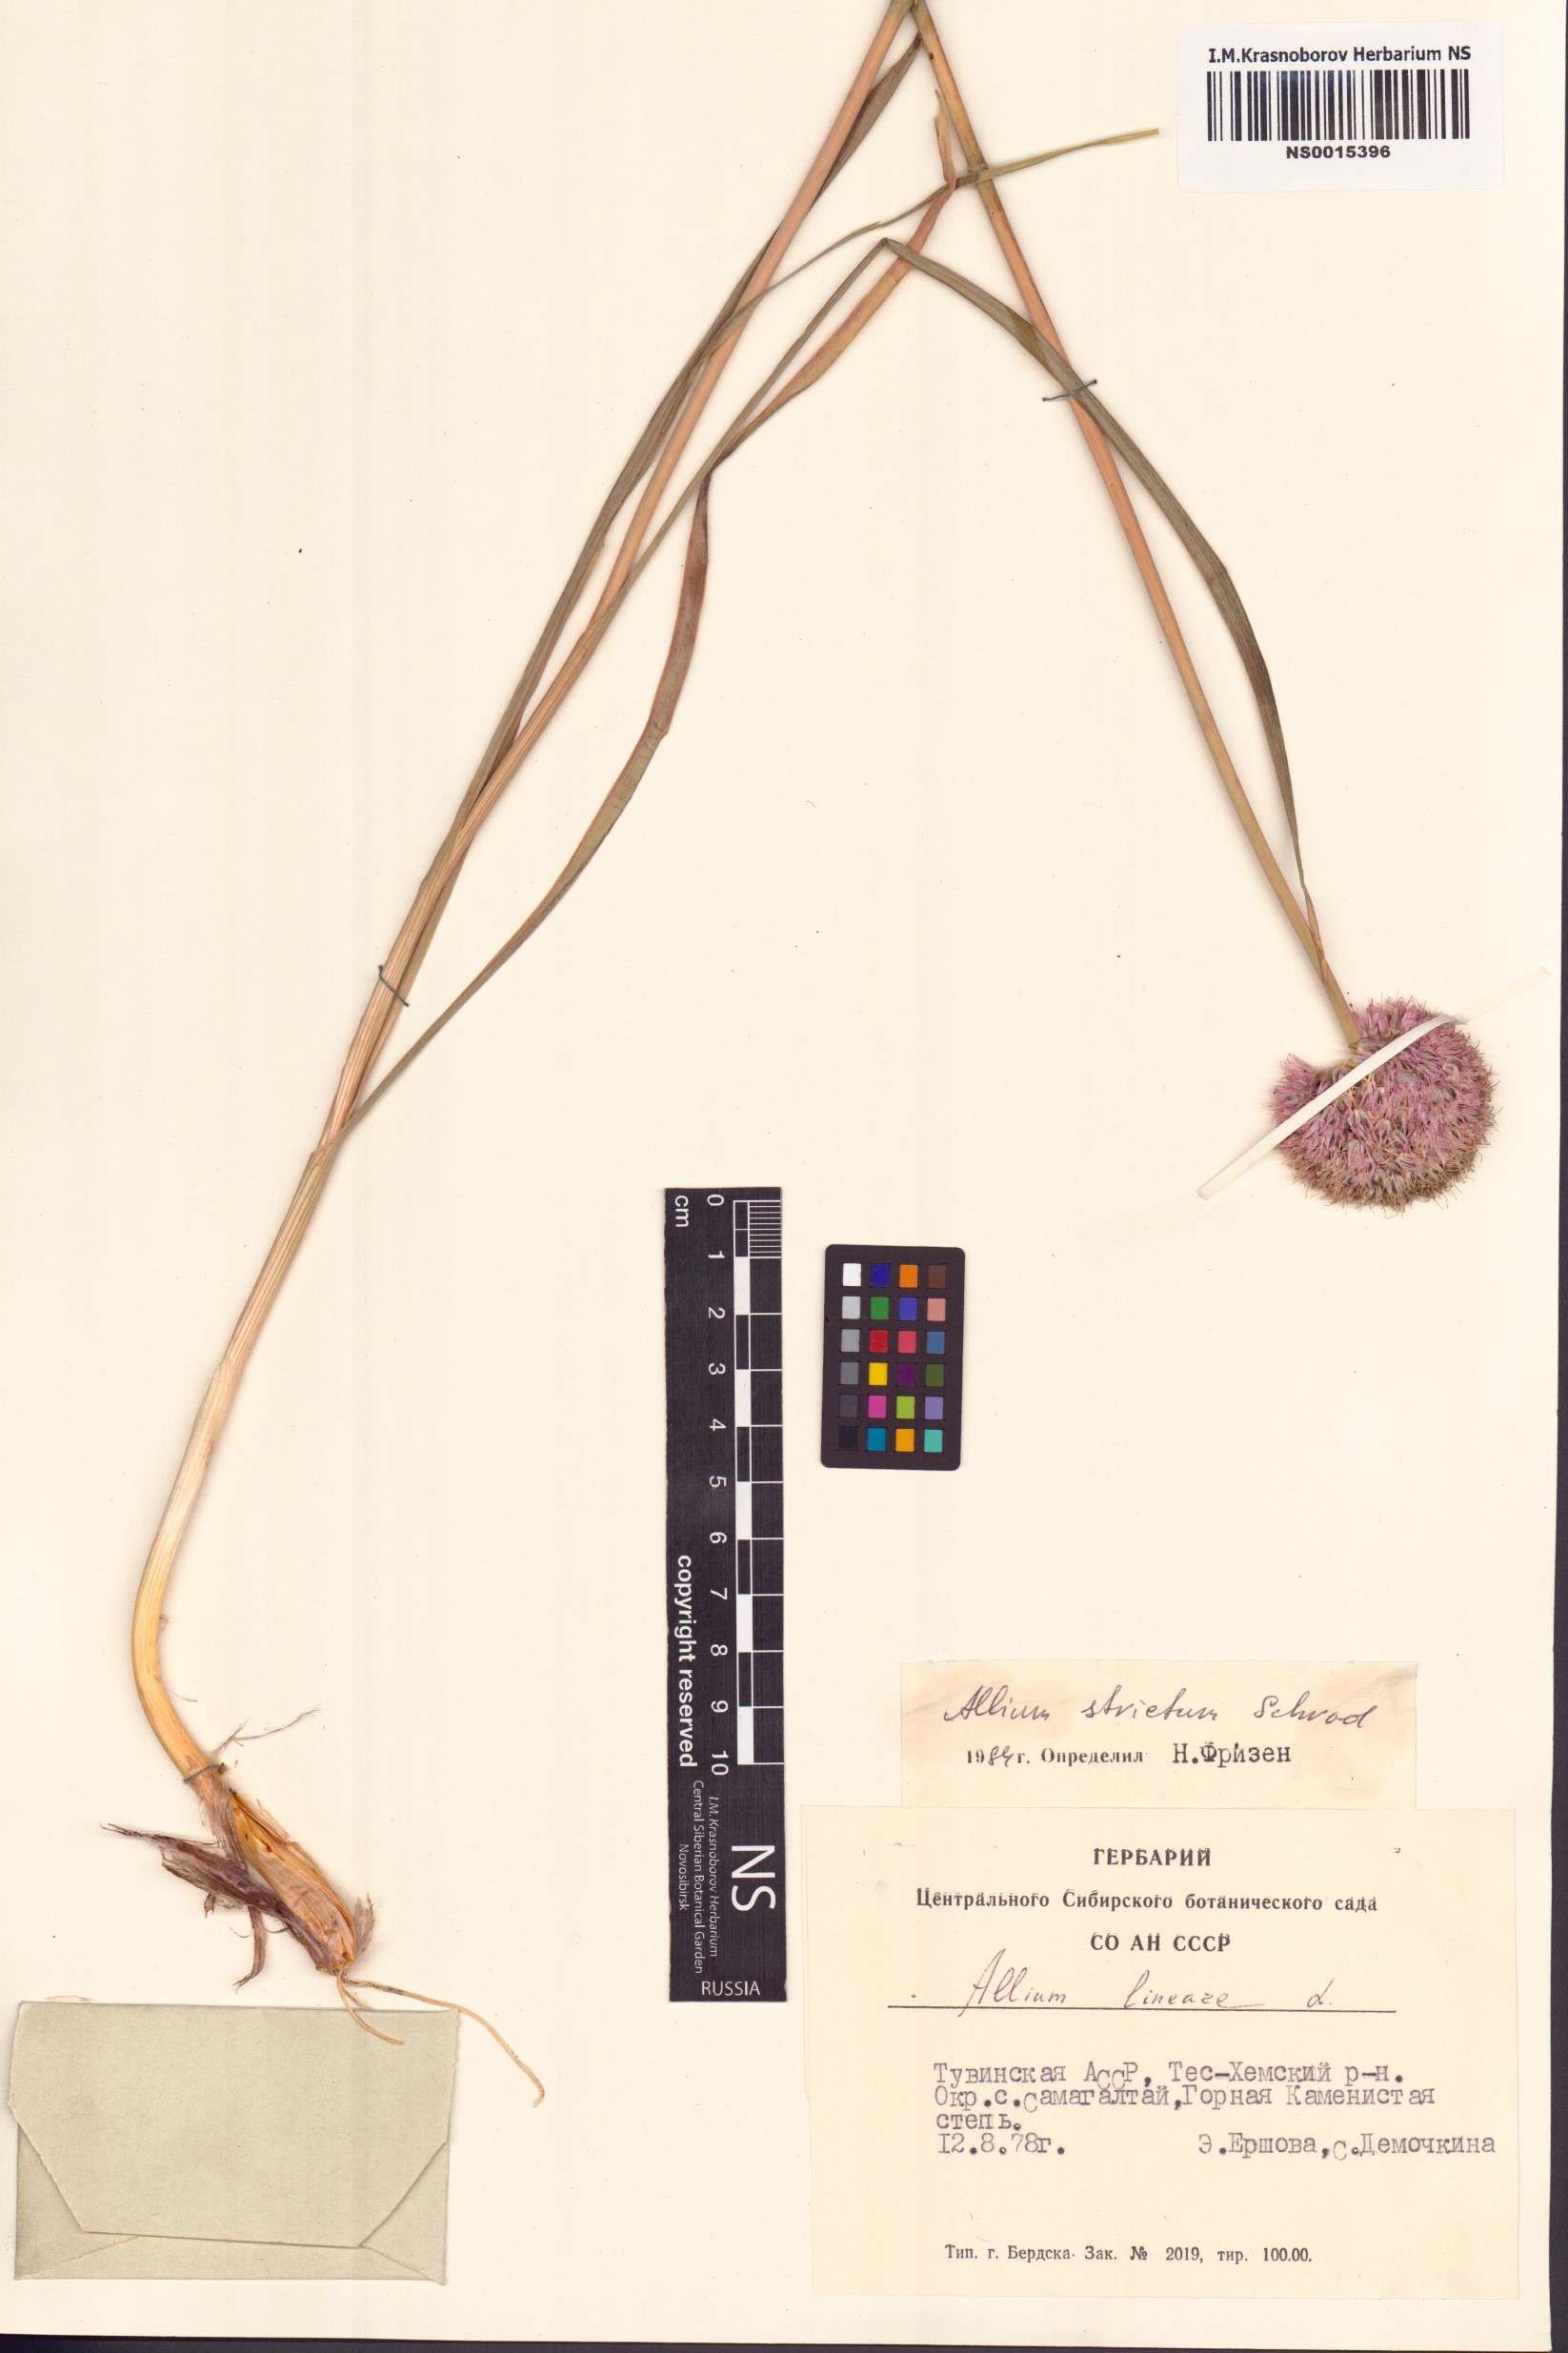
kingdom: Plantae
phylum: Tracheophyta
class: Liliopsida
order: Asparagales
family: Amaryllidaceae
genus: Allium
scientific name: Allium strictum
